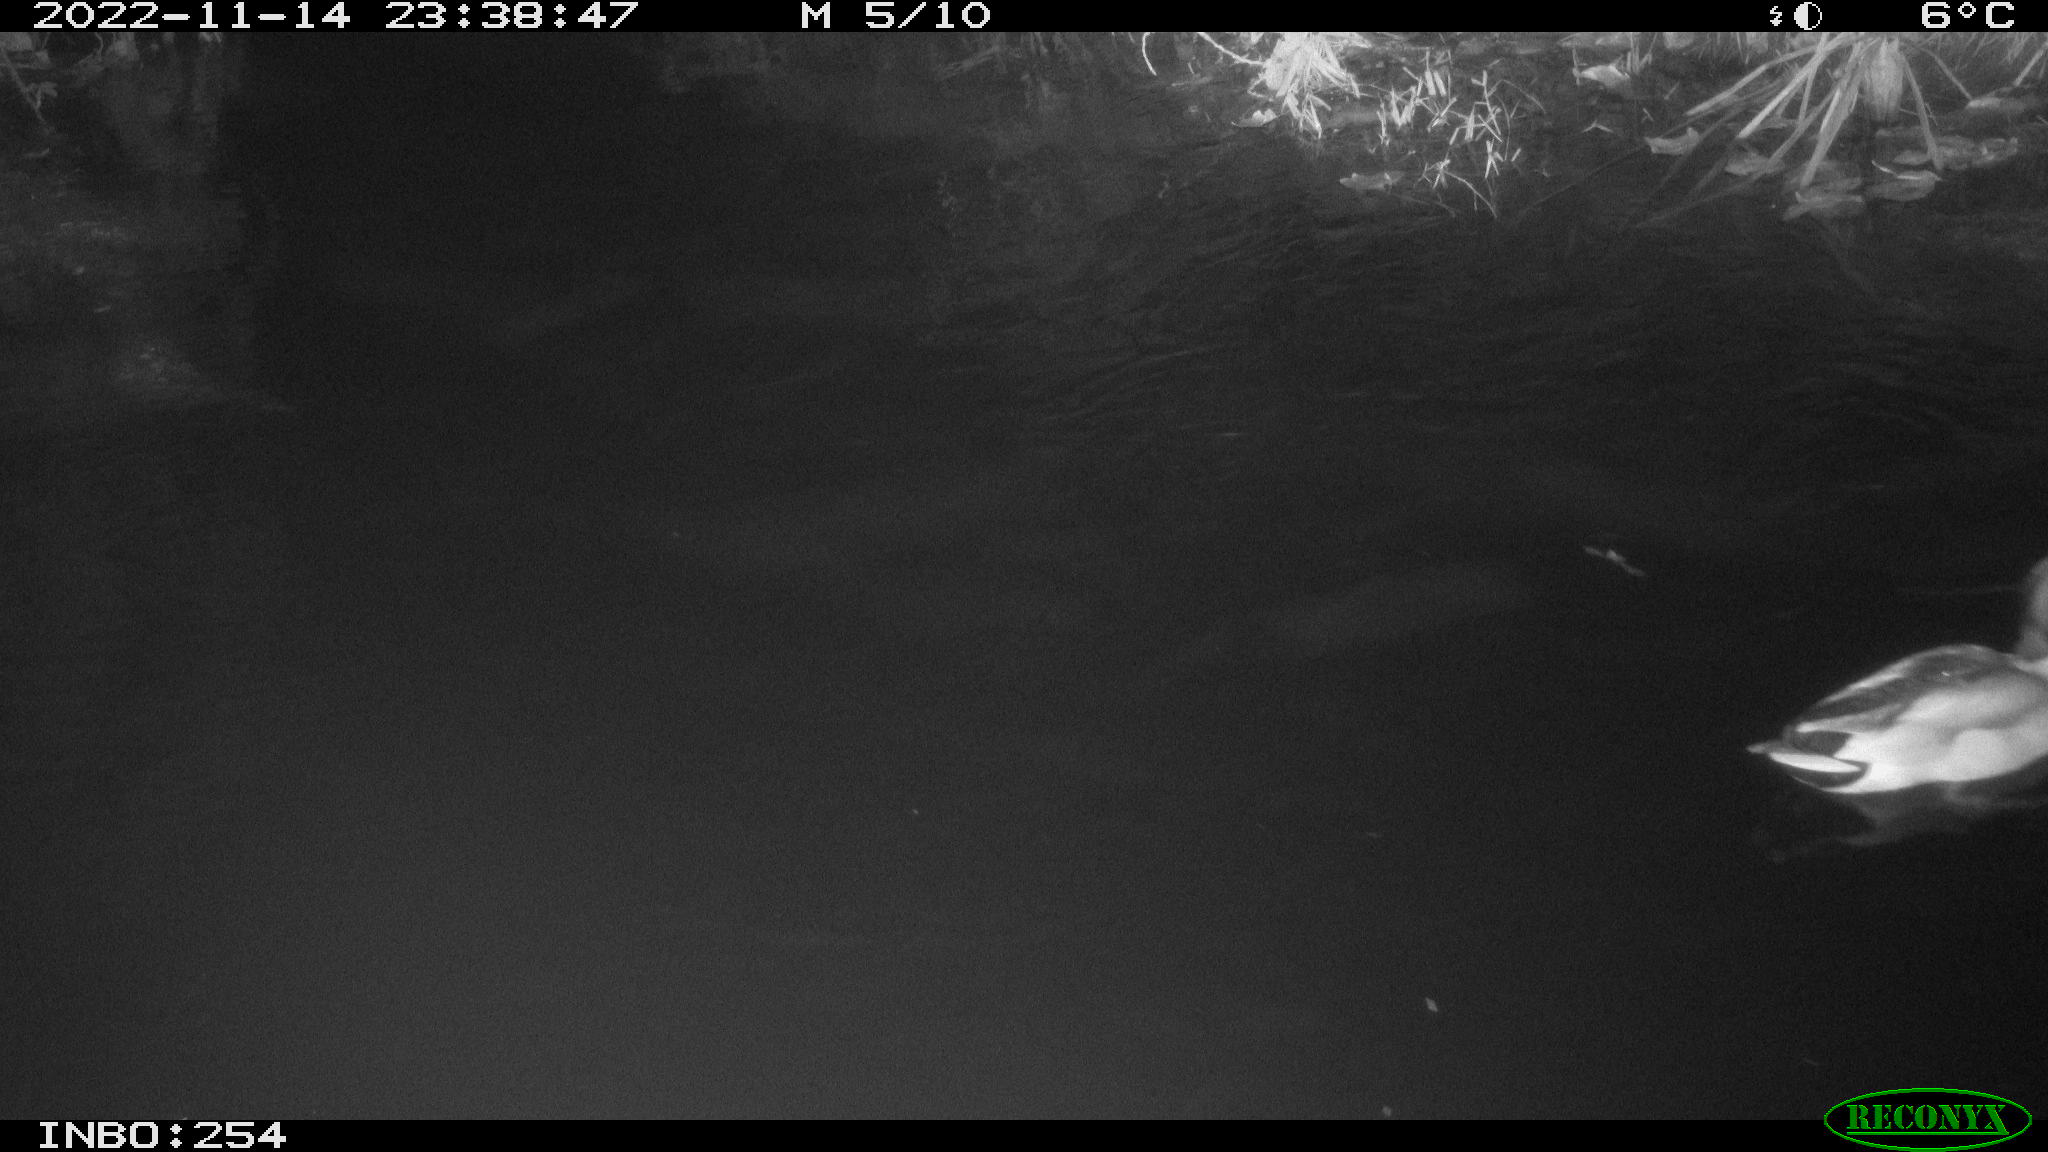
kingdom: Animalia
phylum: Chordata
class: Aves
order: Anseriformes
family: Anatidae
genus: Anas
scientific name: Anas
